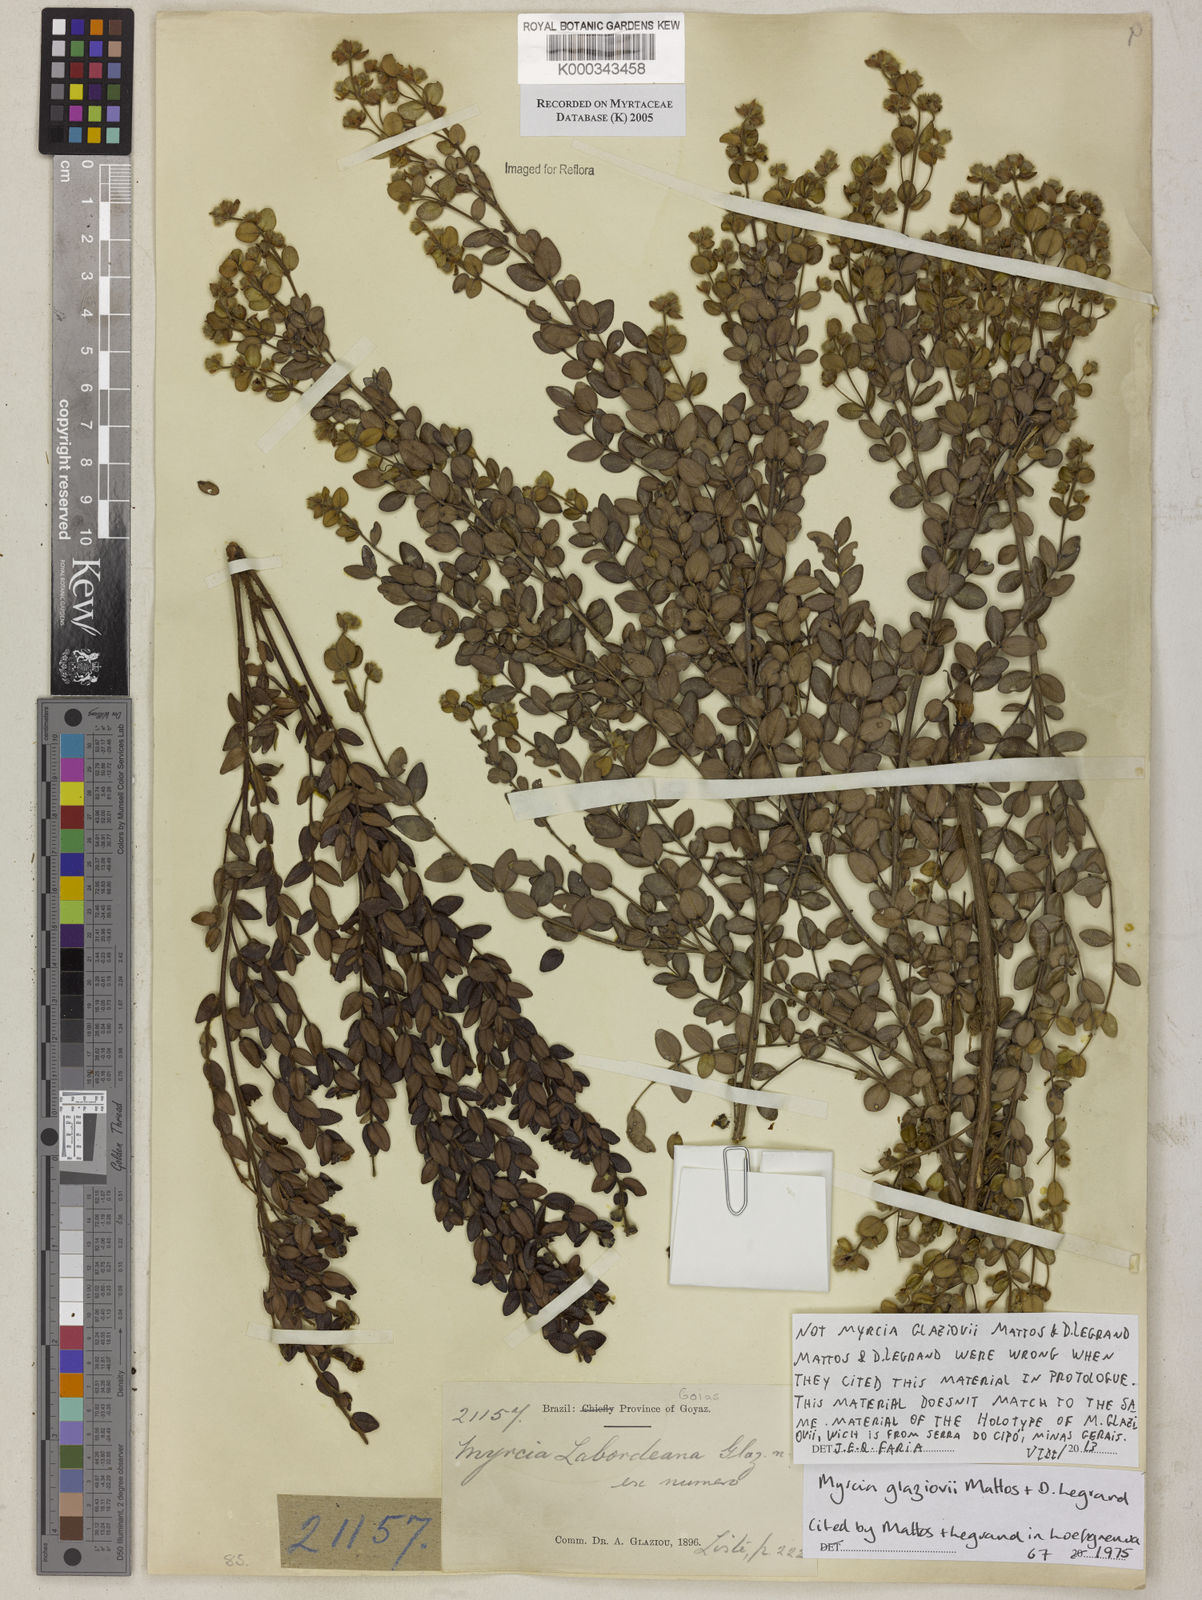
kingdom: Plantae
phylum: Tracheophyta
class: Magnoliopsida
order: Myrtales
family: Myrtaceae
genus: Myrcia
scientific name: Myrcia
